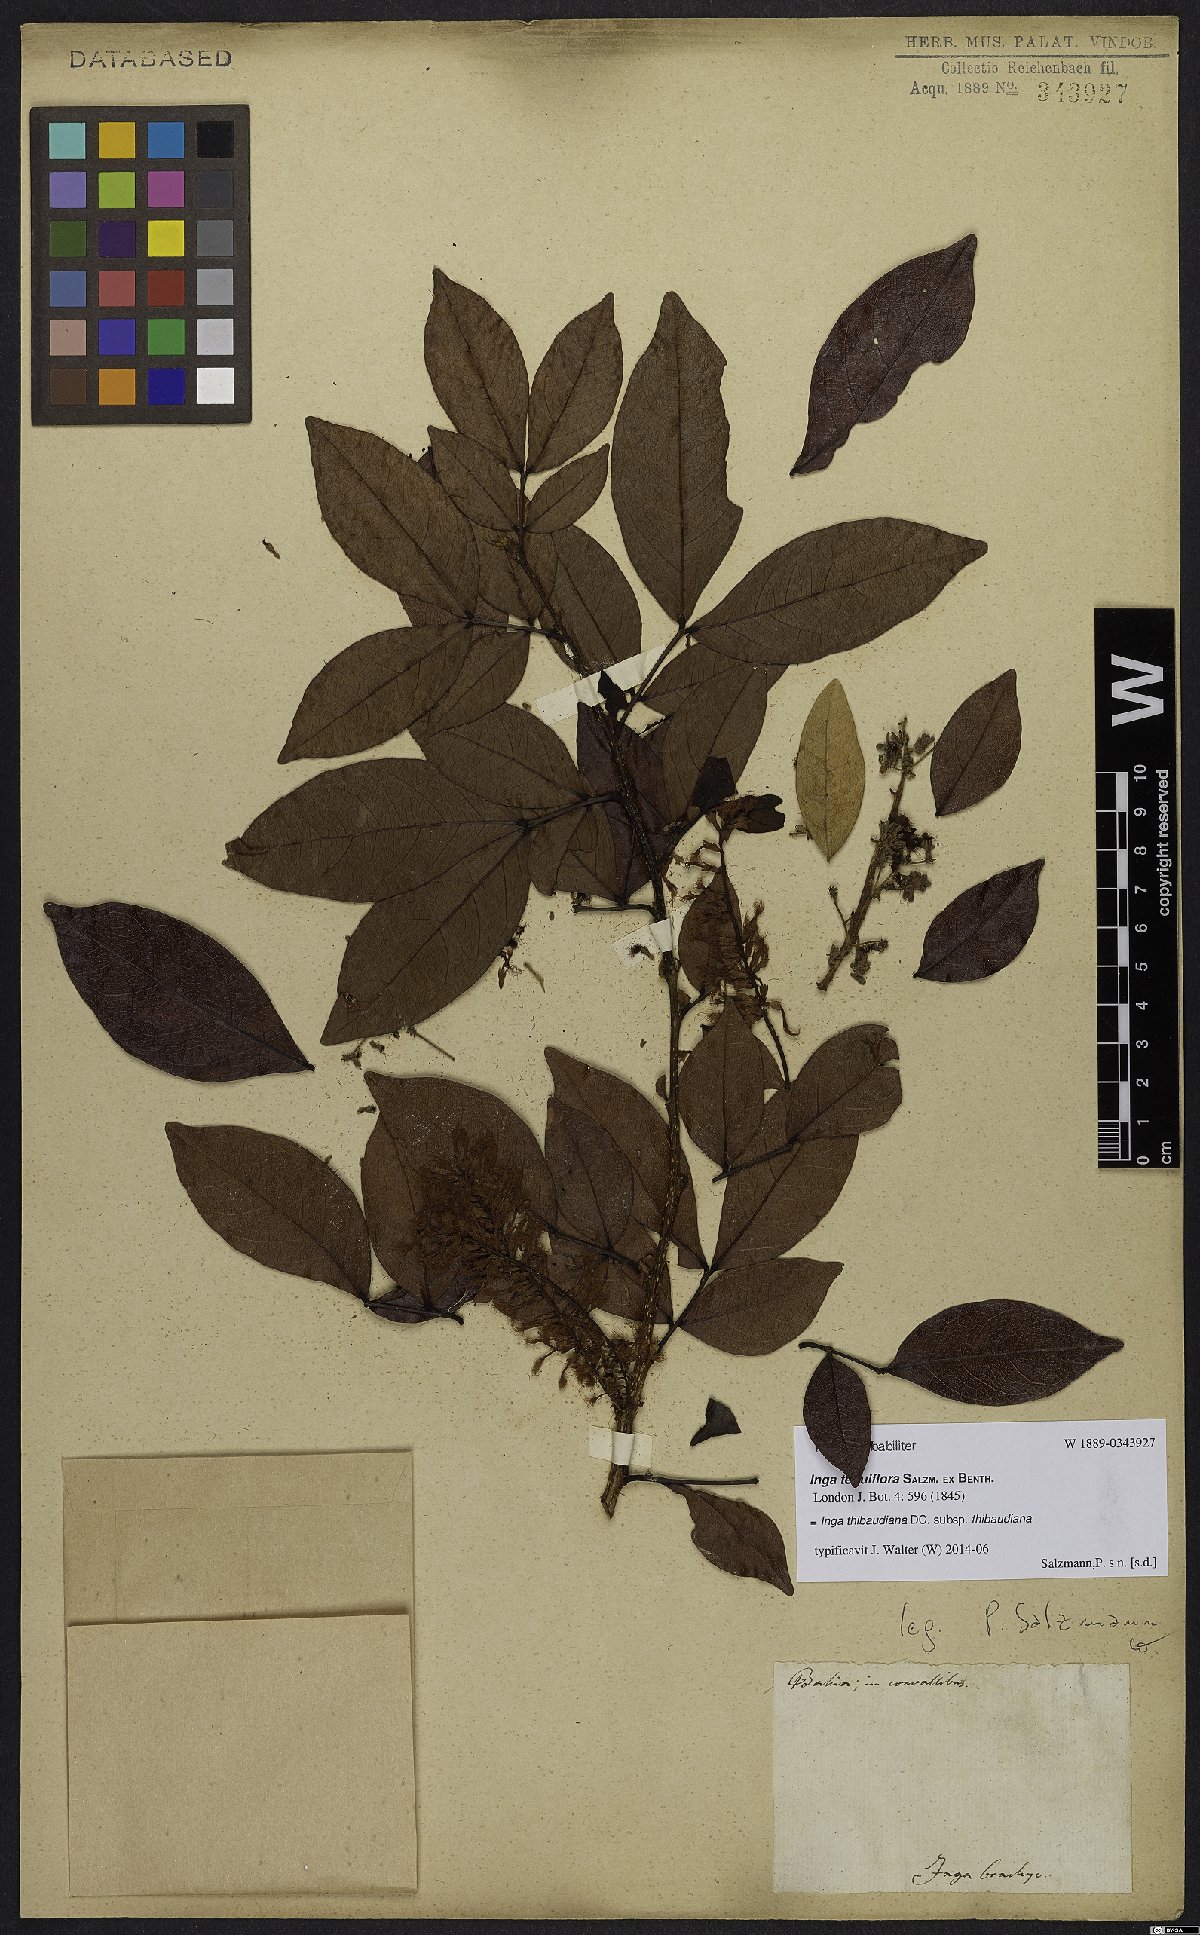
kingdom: Plantae
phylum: Tracheophyta
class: Magnoliopsida
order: Fabales
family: Fabaceae
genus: Inga
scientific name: Inga thibaudiana
